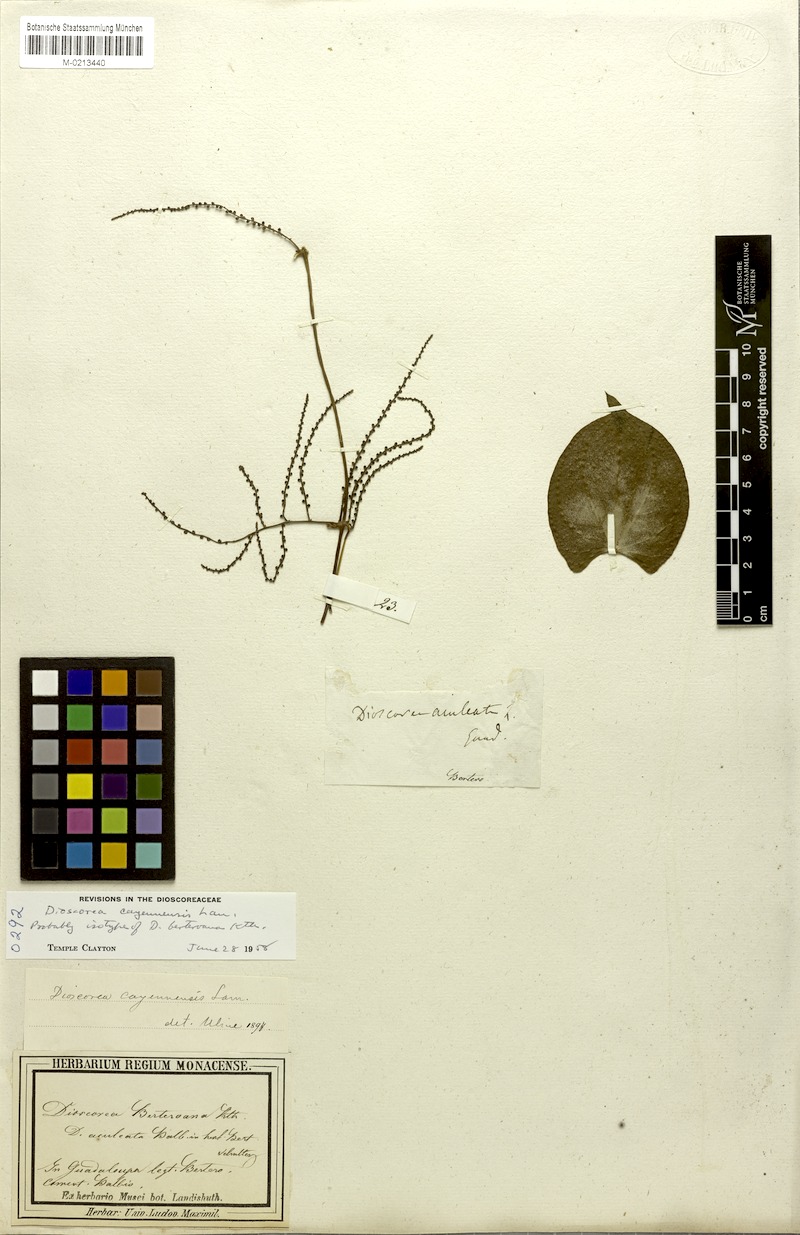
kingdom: Plantae
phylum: Tracheophyta
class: Liliopsida
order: Dioscoreales
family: Dioscoreaceae
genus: Dioscorea
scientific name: Dioscorea cayenensis
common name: Attoto yam
